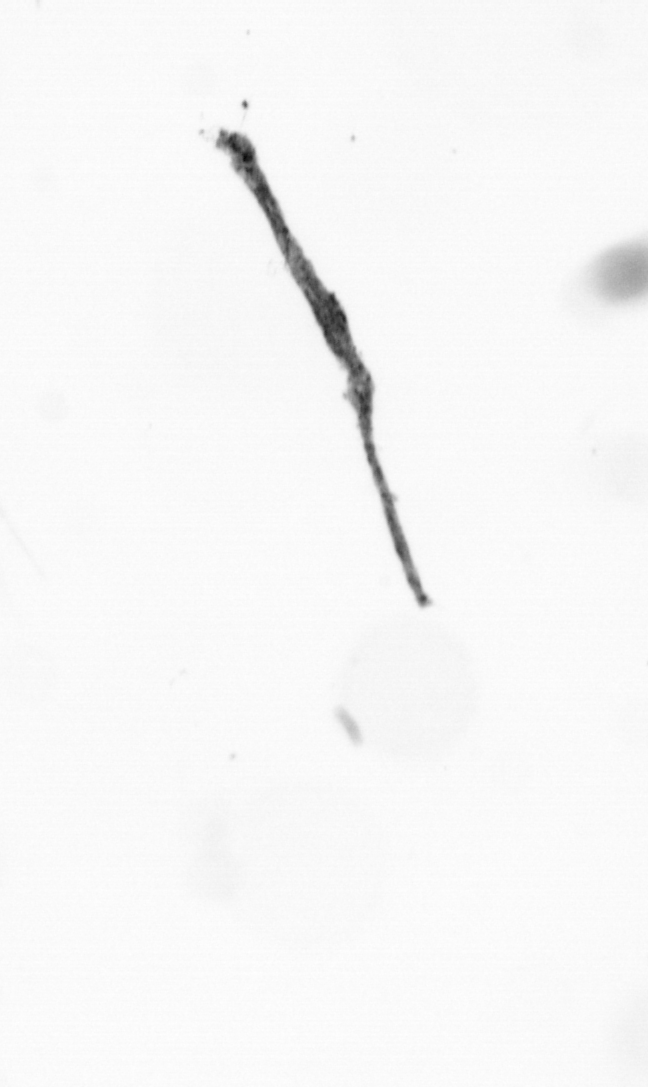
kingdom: Chromista
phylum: Ochrophyta
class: Bacillariophyceae
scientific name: Bacillariophyceae
